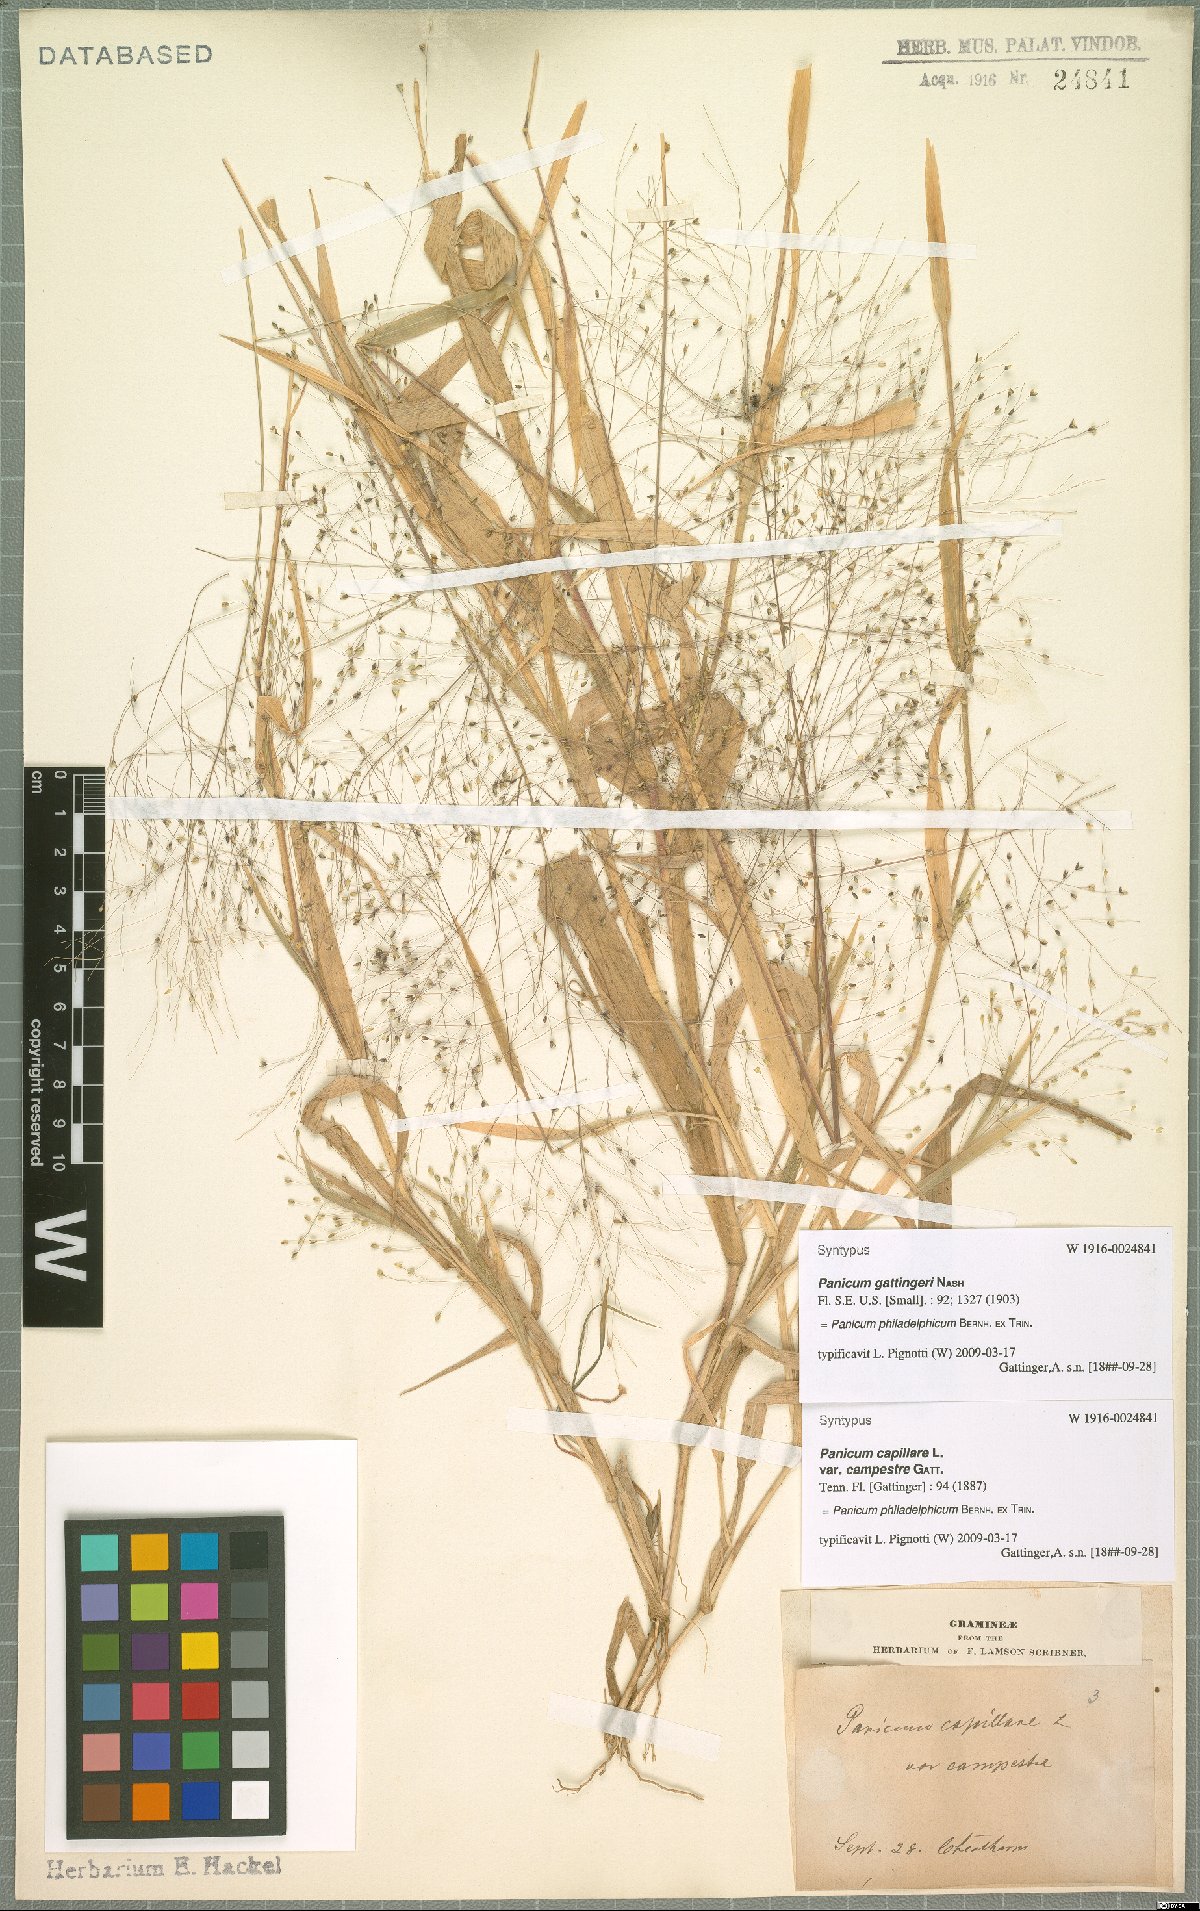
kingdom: Plantae
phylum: Tracheophyta
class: Liliopsida
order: Poales
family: Poaceae
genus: Panicum
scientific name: Panicum philadelphicum
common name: Philadelphia witchgrass
